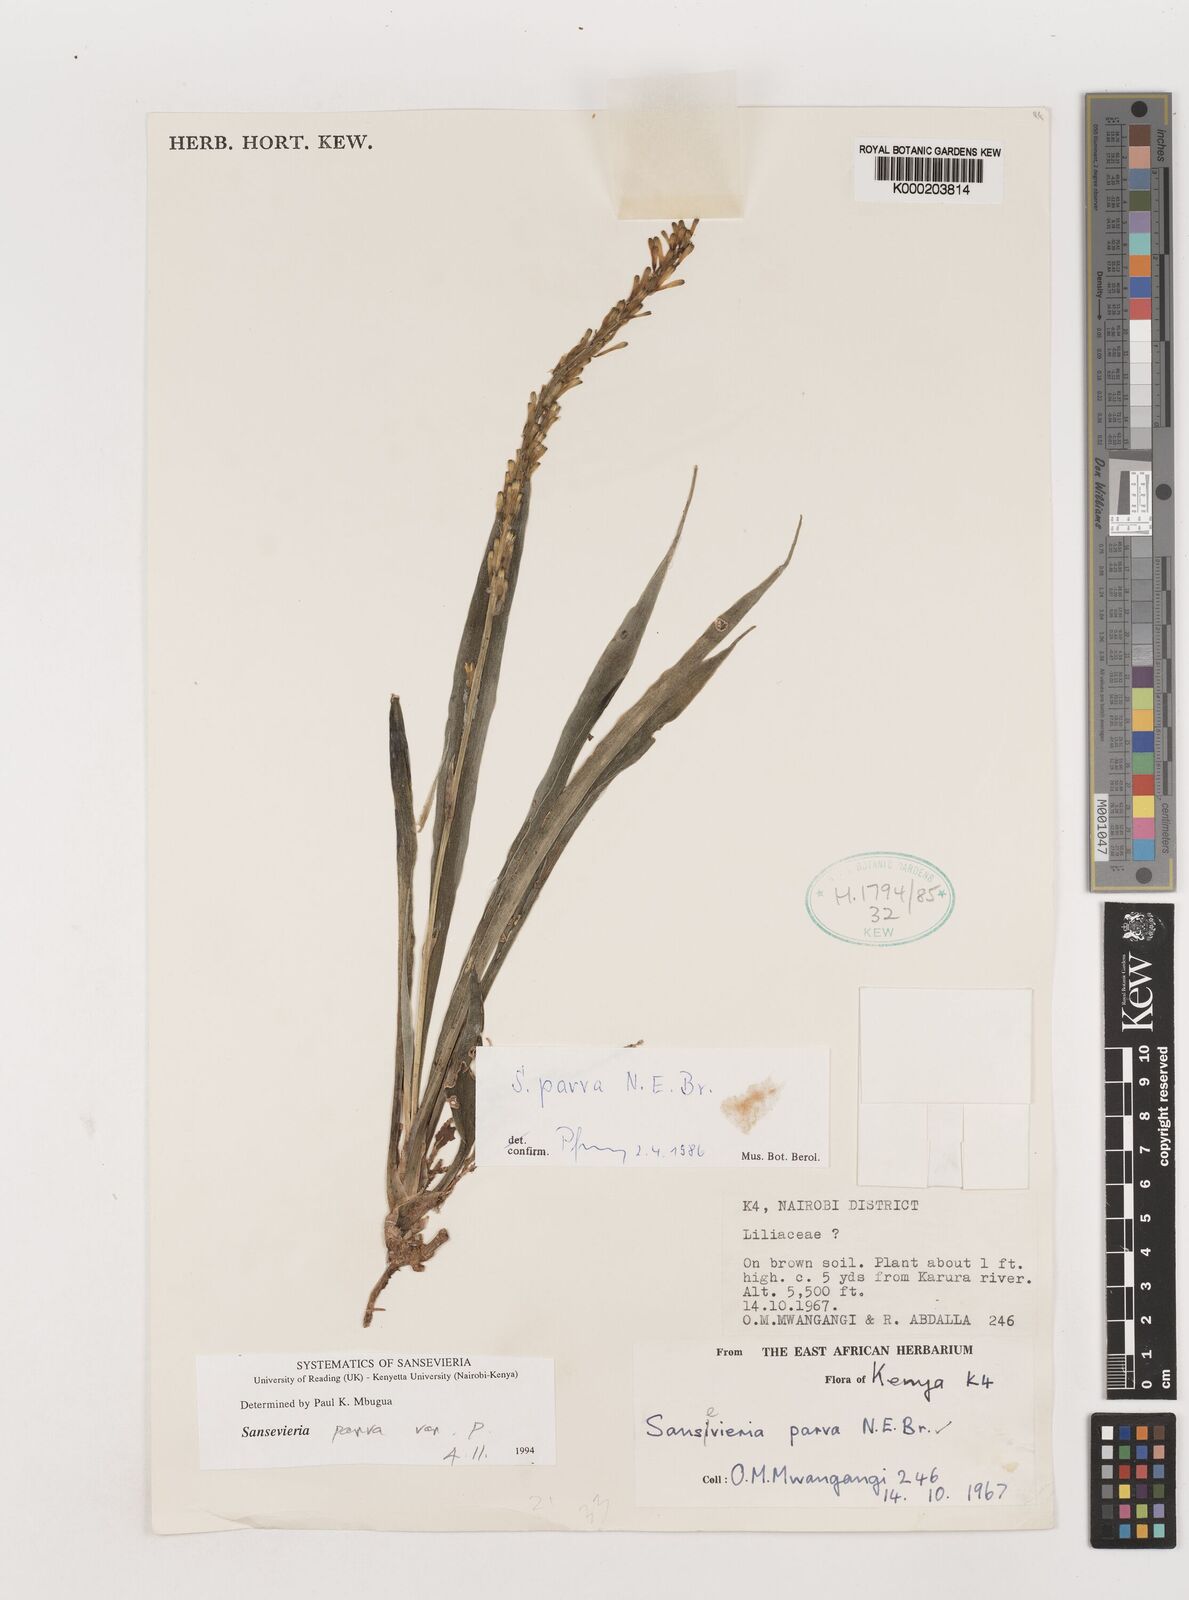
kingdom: Plantae
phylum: Tracheophyta
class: Liliopsida
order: Asparagales
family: Asparagaceae
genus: Dracaena
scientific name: Dracaena parva
